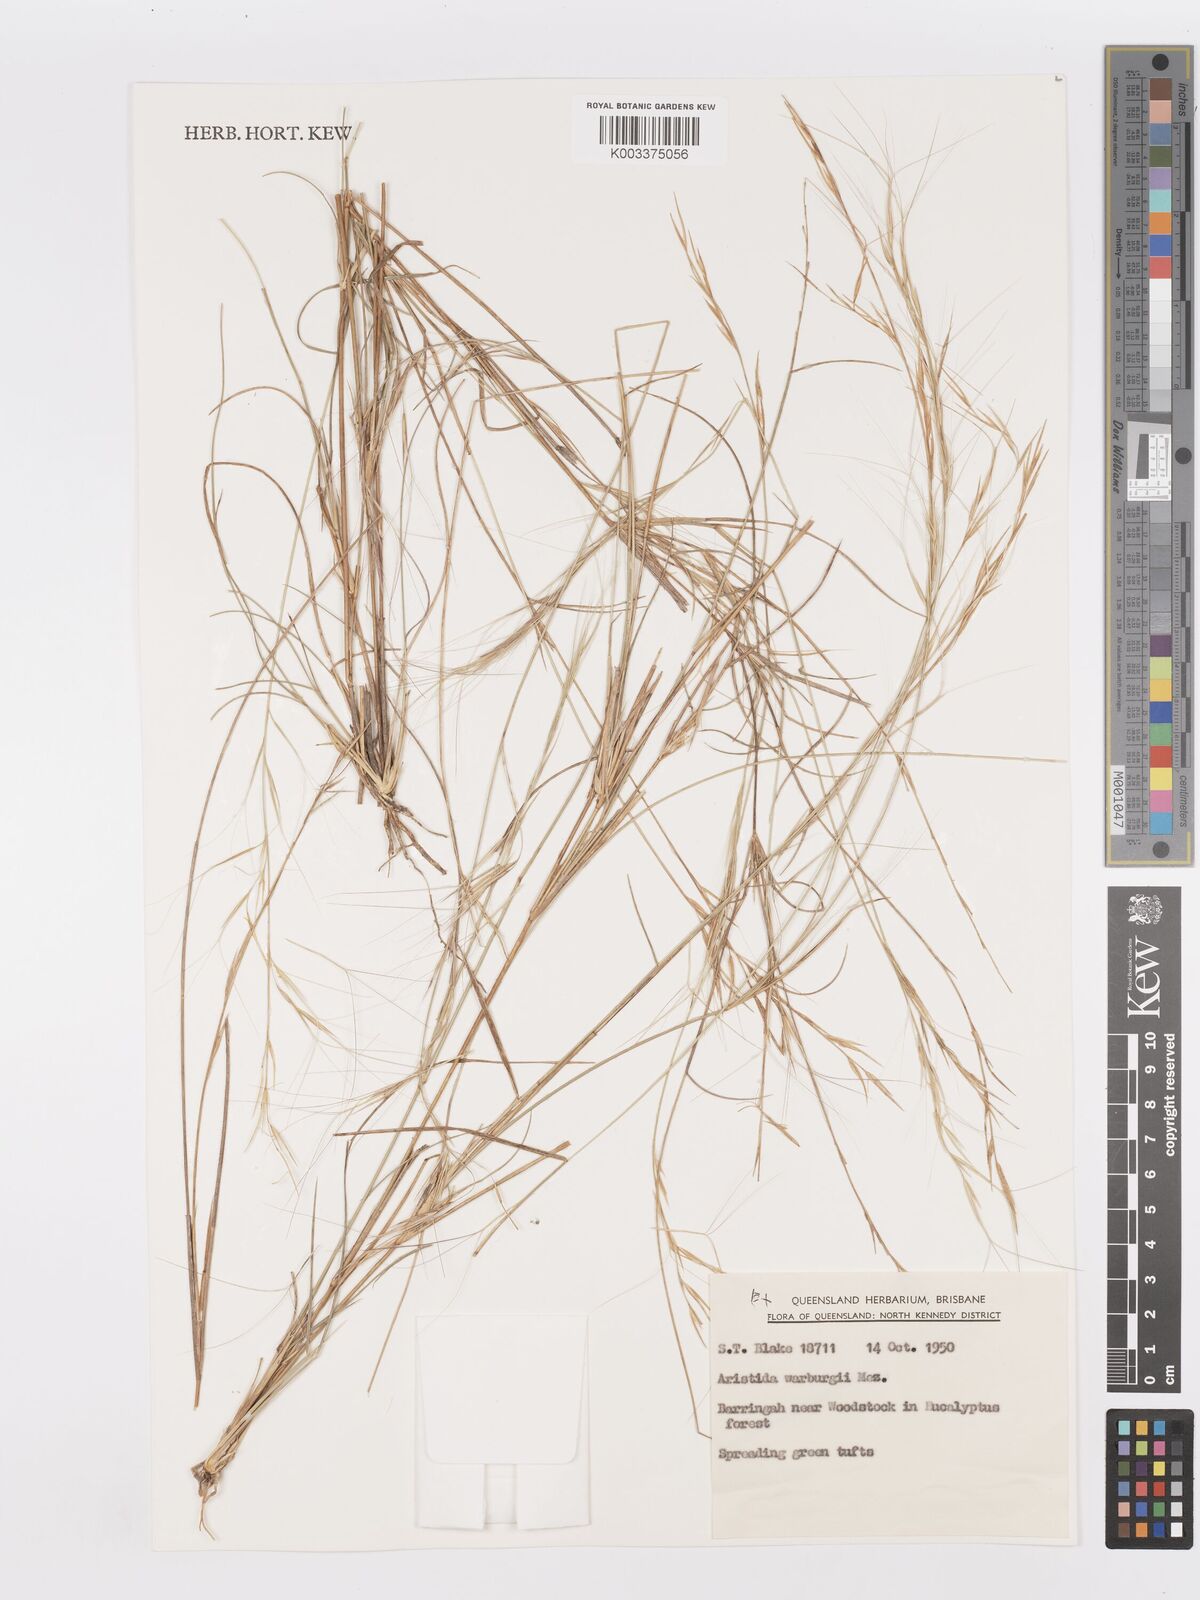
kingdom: Plantae
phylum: Tracheophyta
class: Liliopsida
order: Poales
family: Poaceae
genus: Aristida
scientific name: Aristida warburgii
